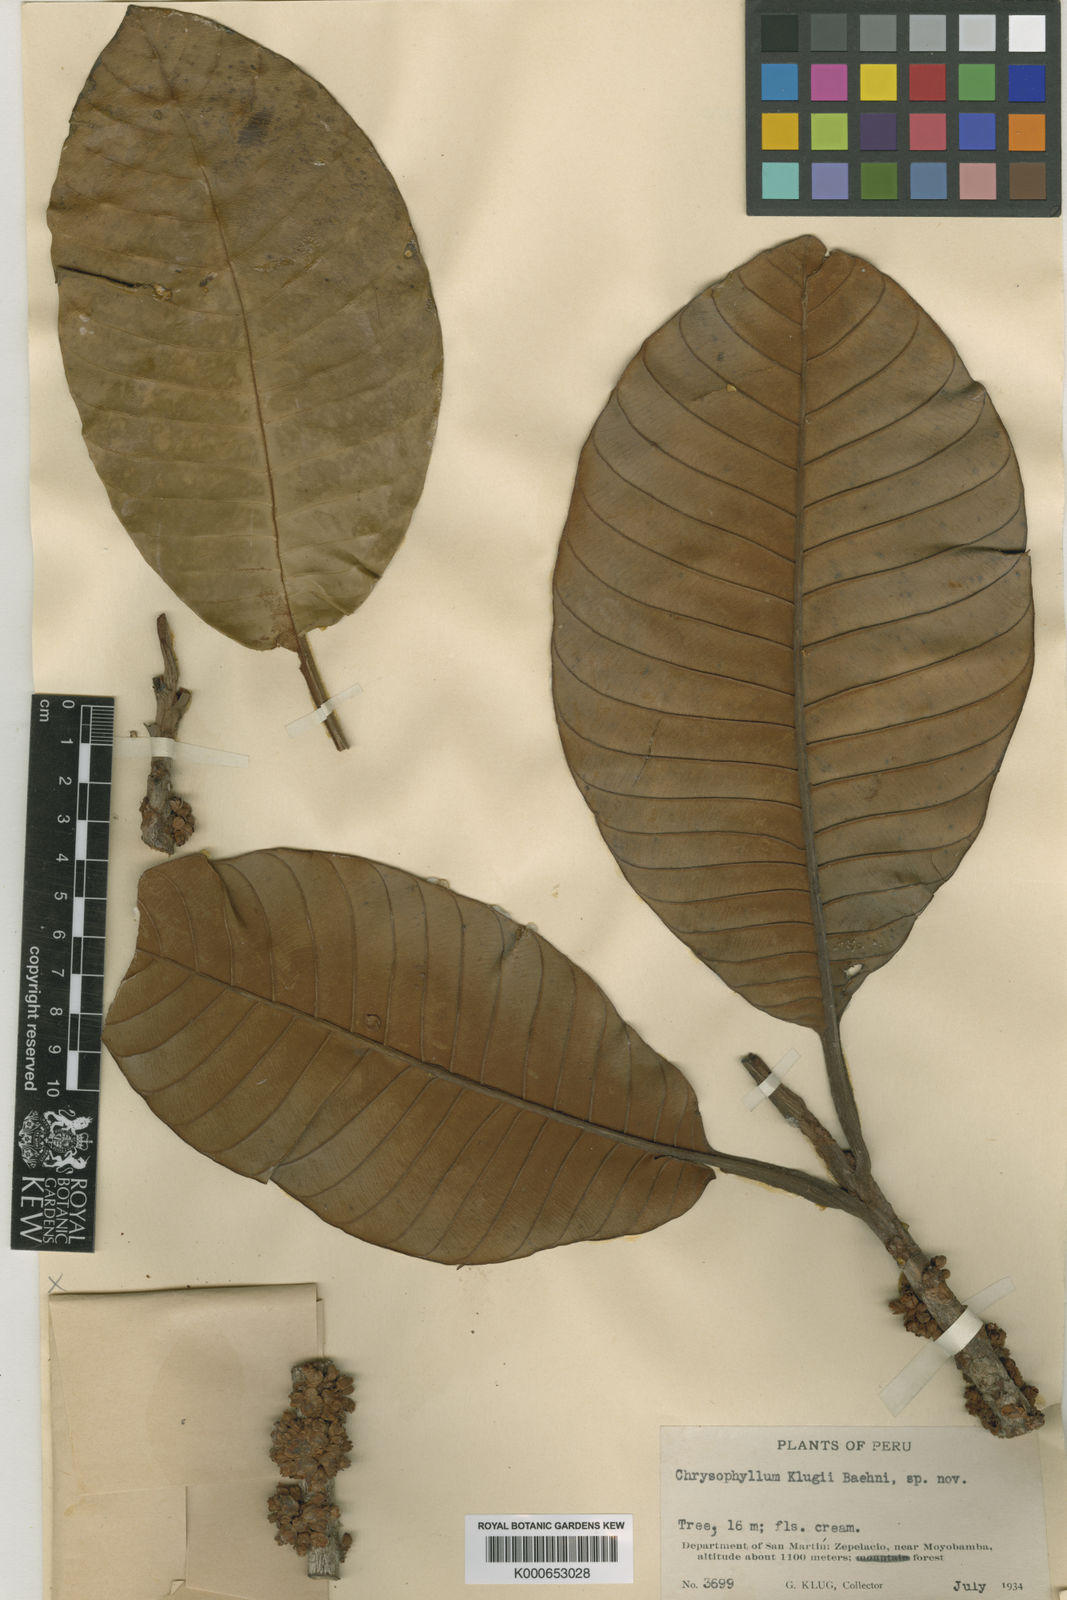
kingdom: Plantae
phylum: Tracheophyta
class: Magnoliopsida
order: Ericales
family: Sapotaceae
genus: Chrysophyllum
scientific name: Chrysophyllum sanguinolentum
